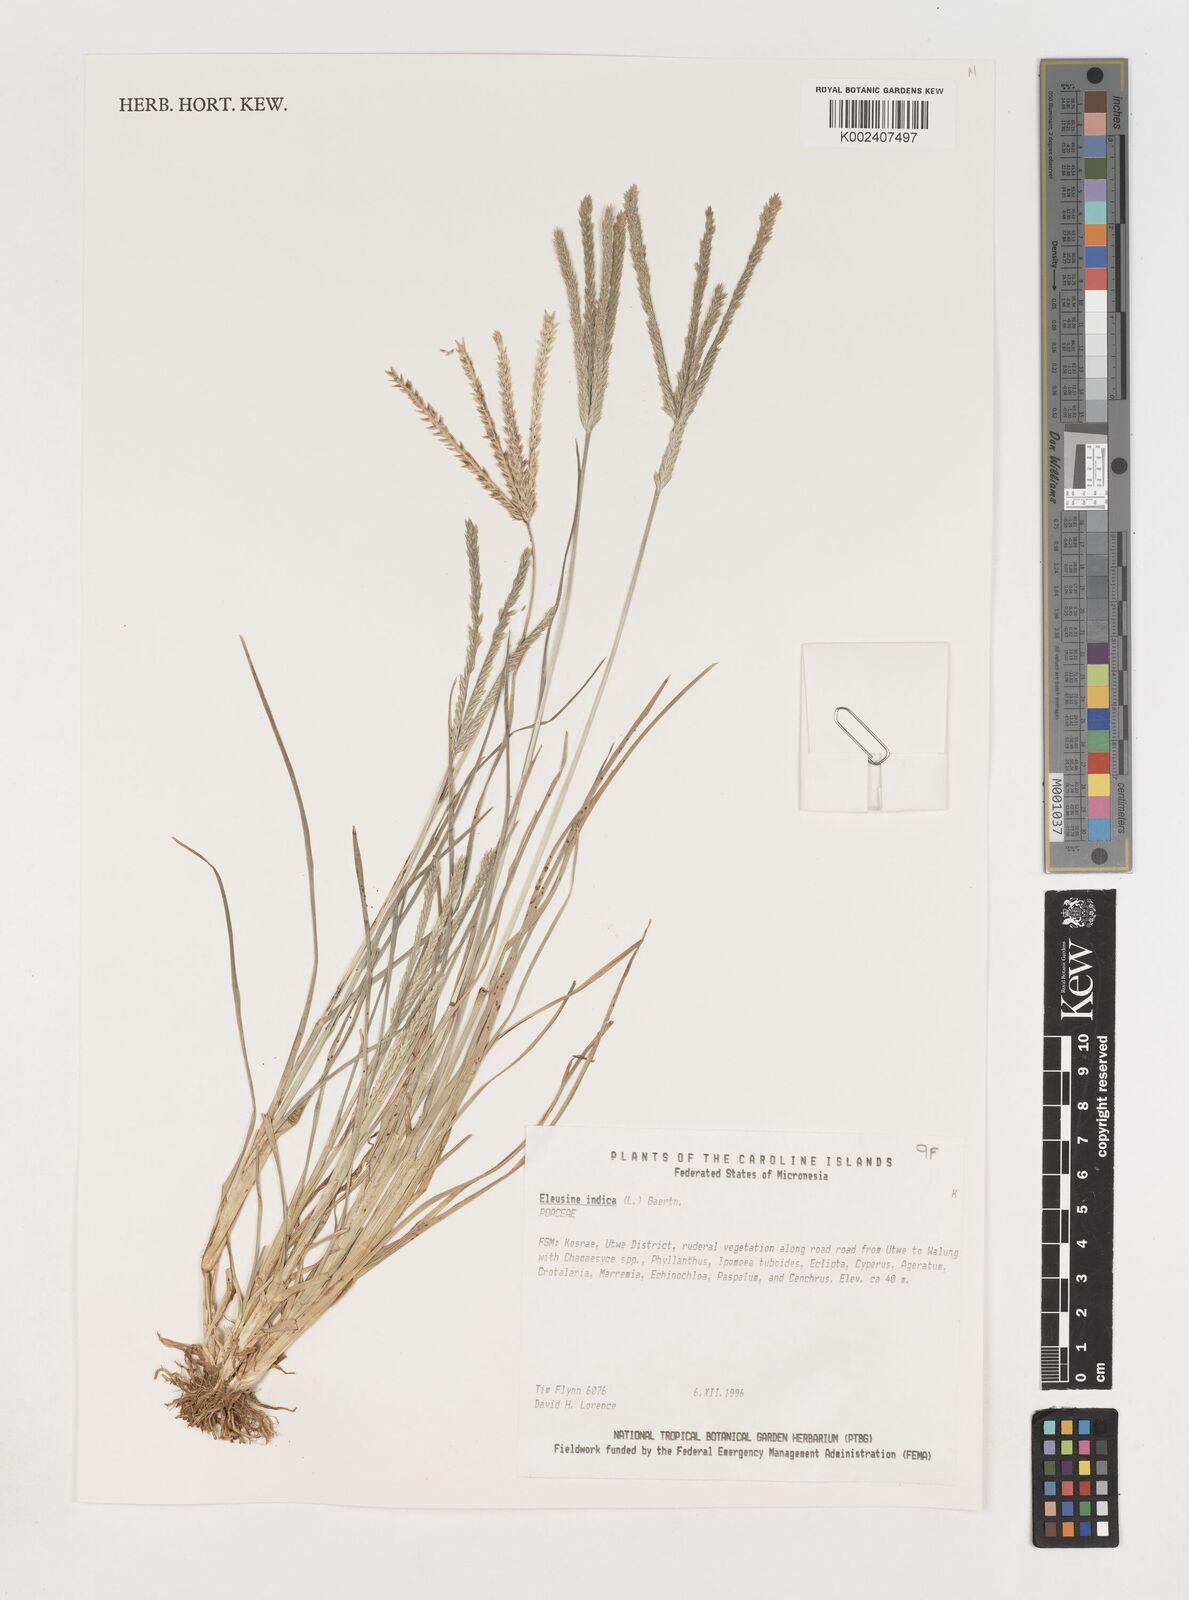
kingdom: Plantae
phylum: Tracheophyta
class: Liliopsida
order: Poales
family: Poaceae
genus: Eleusine
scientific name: Eleusine indica
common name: Yard-grass
